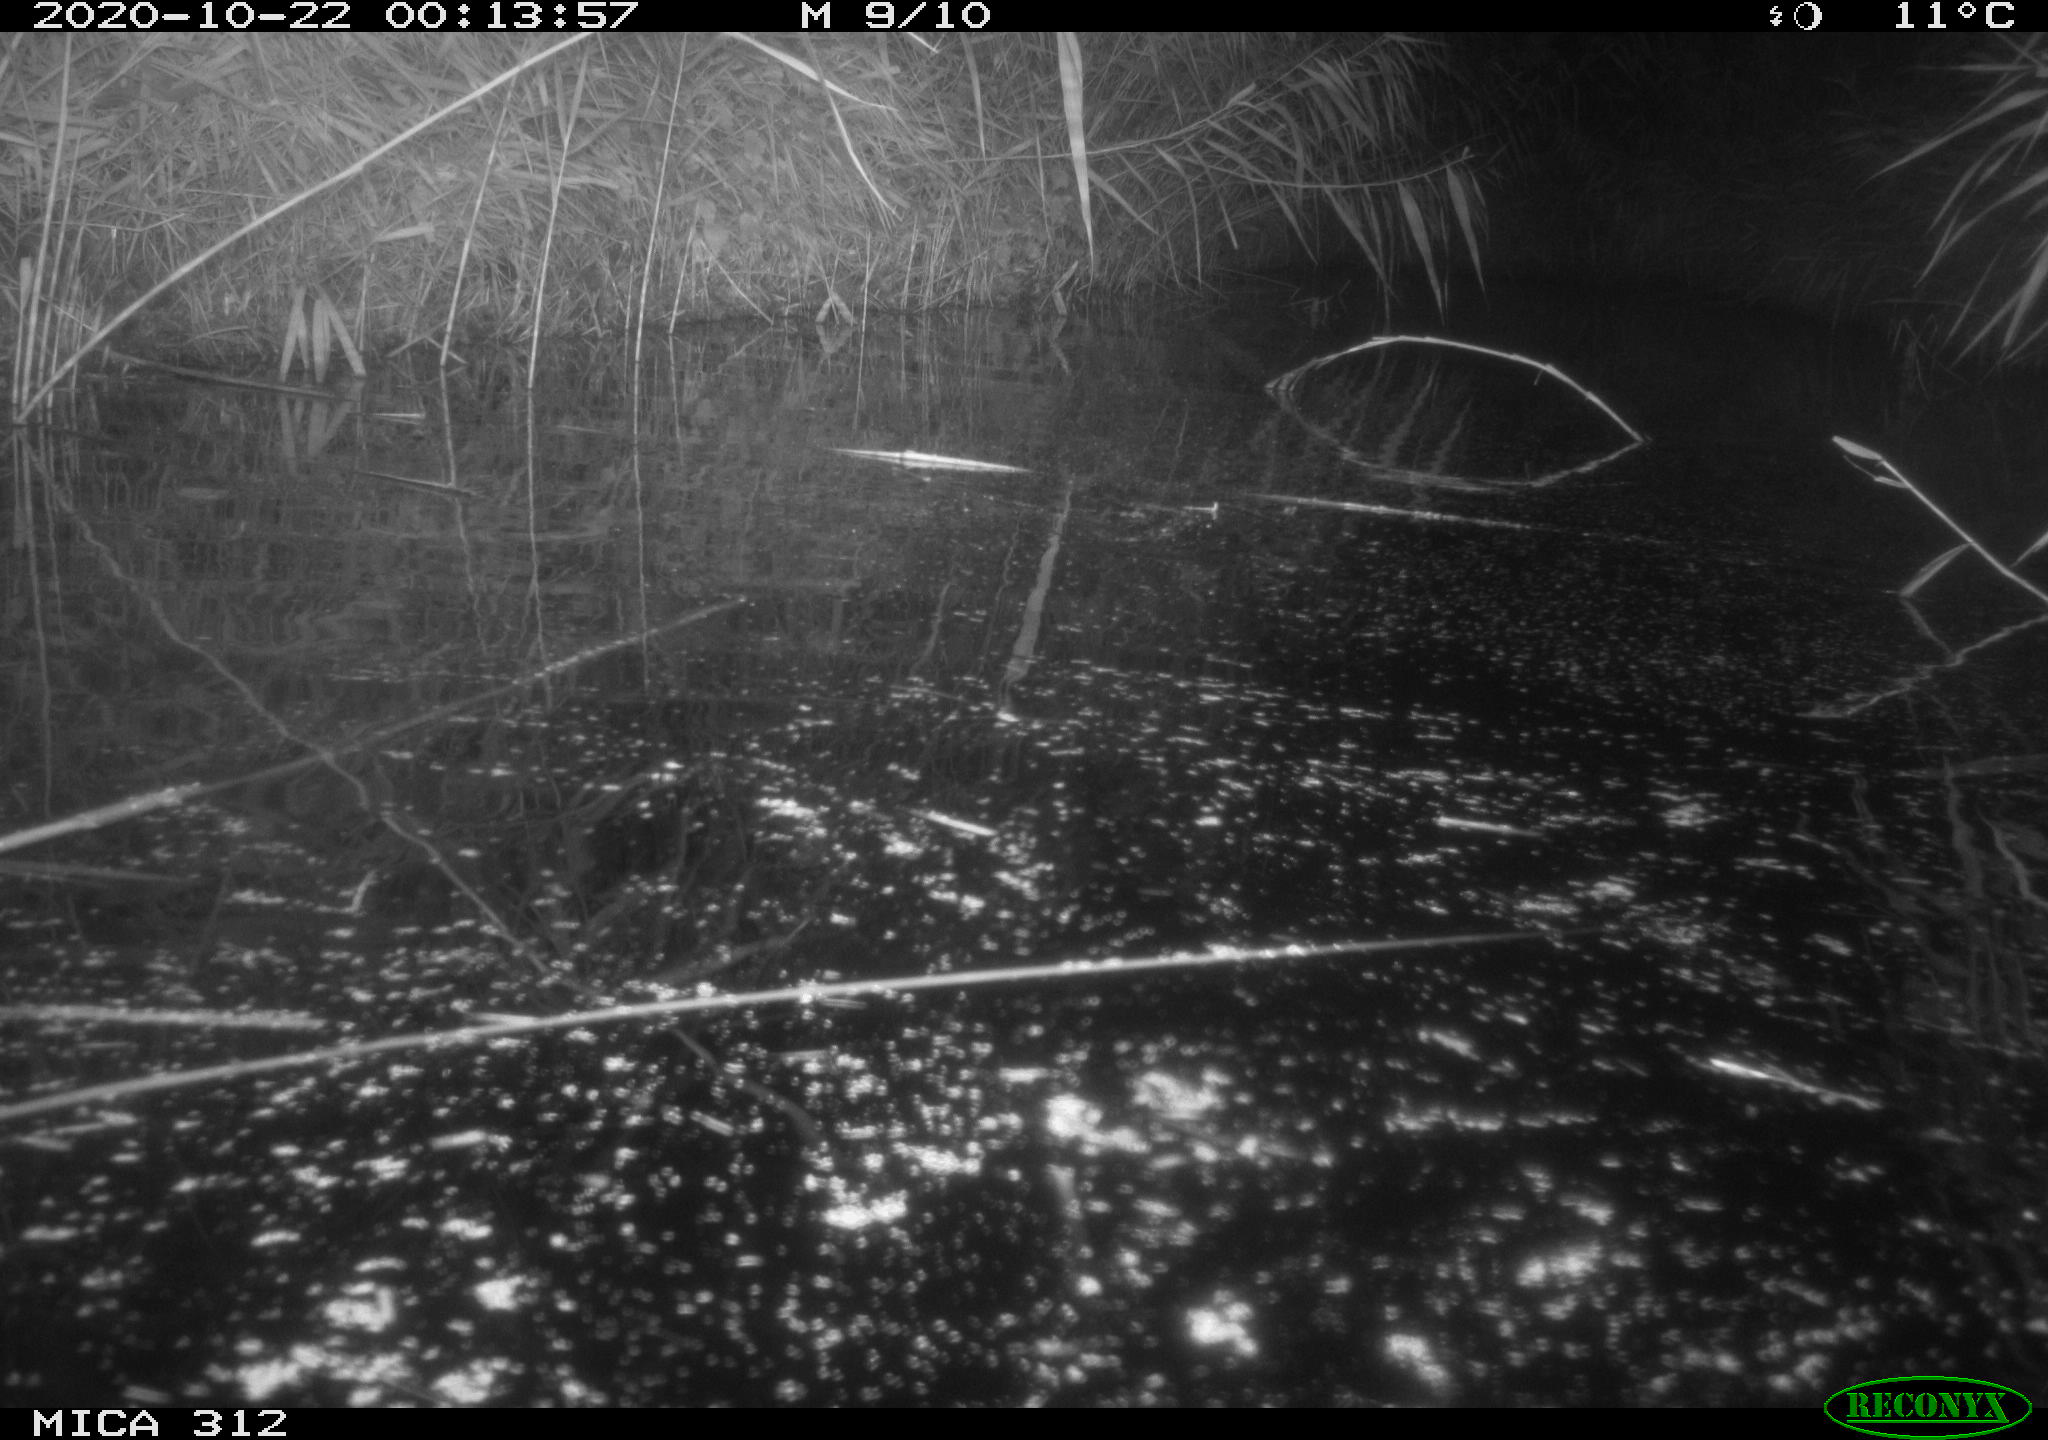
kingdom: Animalia
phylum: Chordata
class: Mammalia
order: Rodentia
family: Muridae
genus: Rattus
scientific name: Rattus norvegicus
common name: Brown rat
